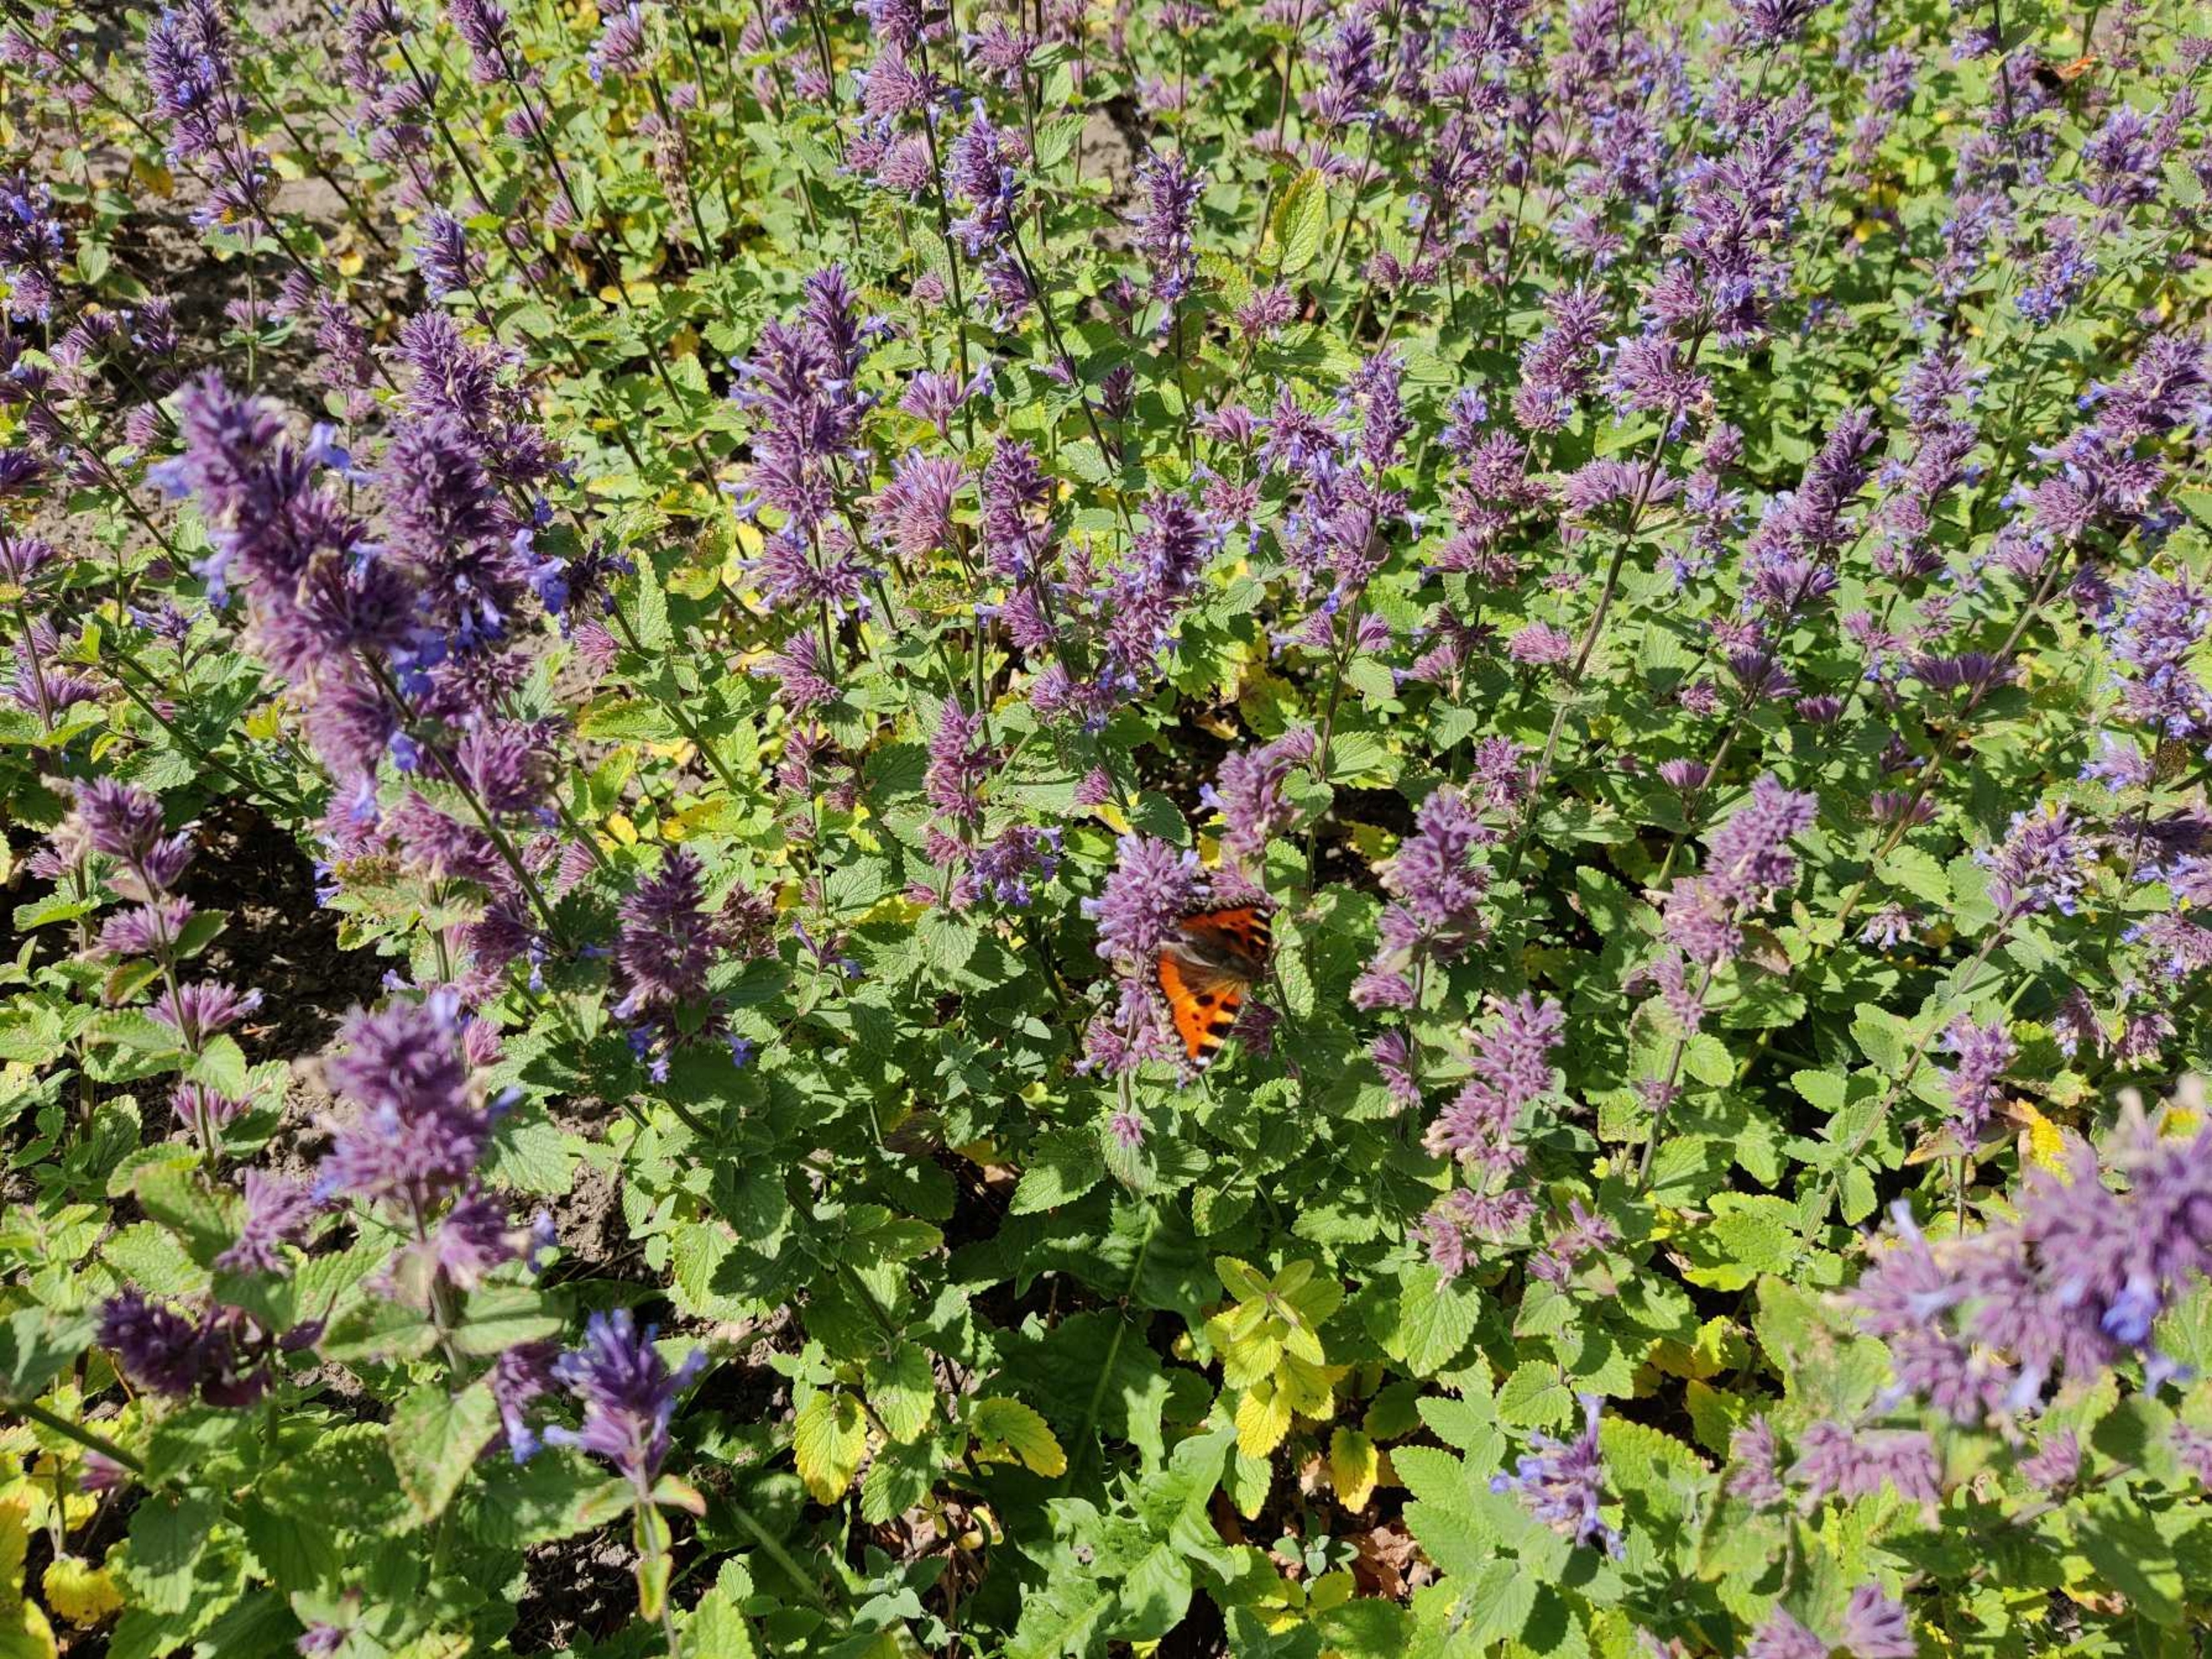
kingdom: Animalia
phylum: Arthropoda
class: Insecta
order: Lepidoptera
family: Nymphalidae
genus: Aglais
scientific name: Aglais urticae
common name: Nældens takvinge
